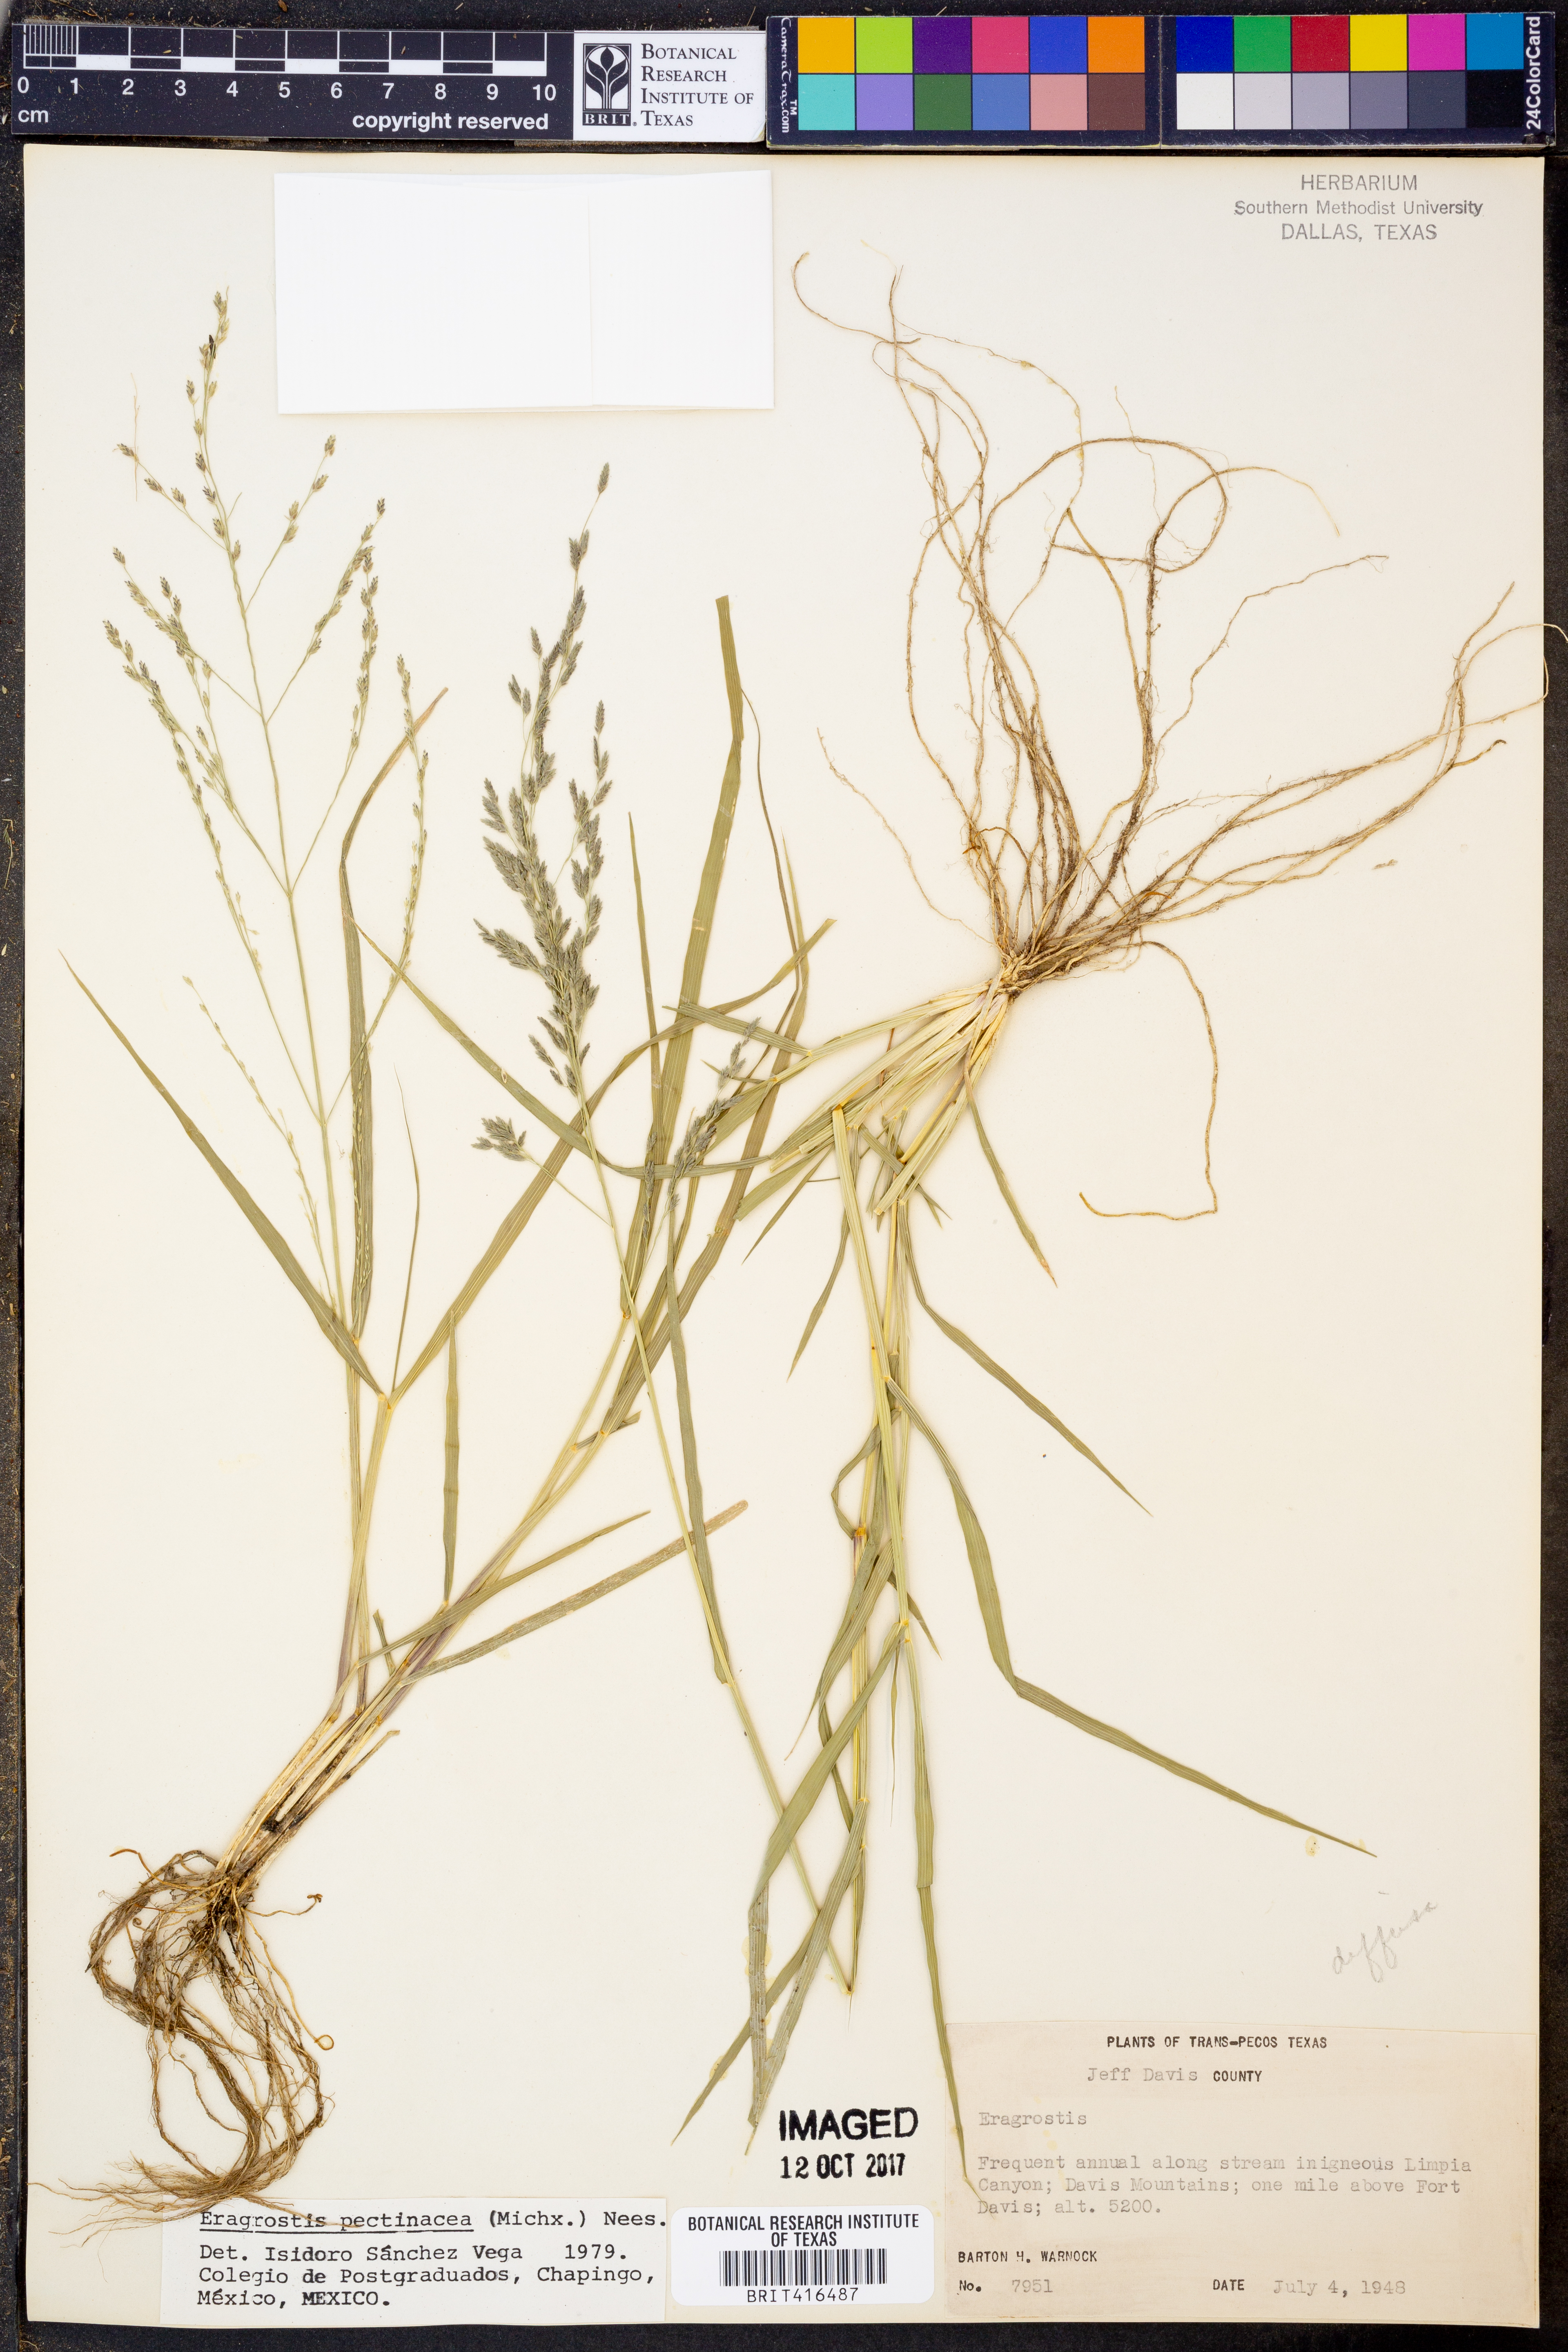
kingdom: Plantae
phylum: Tracheophyta
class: Liliopsida
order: Poales
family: Poaceae
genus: Eragrostis
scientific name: Eragrostis
